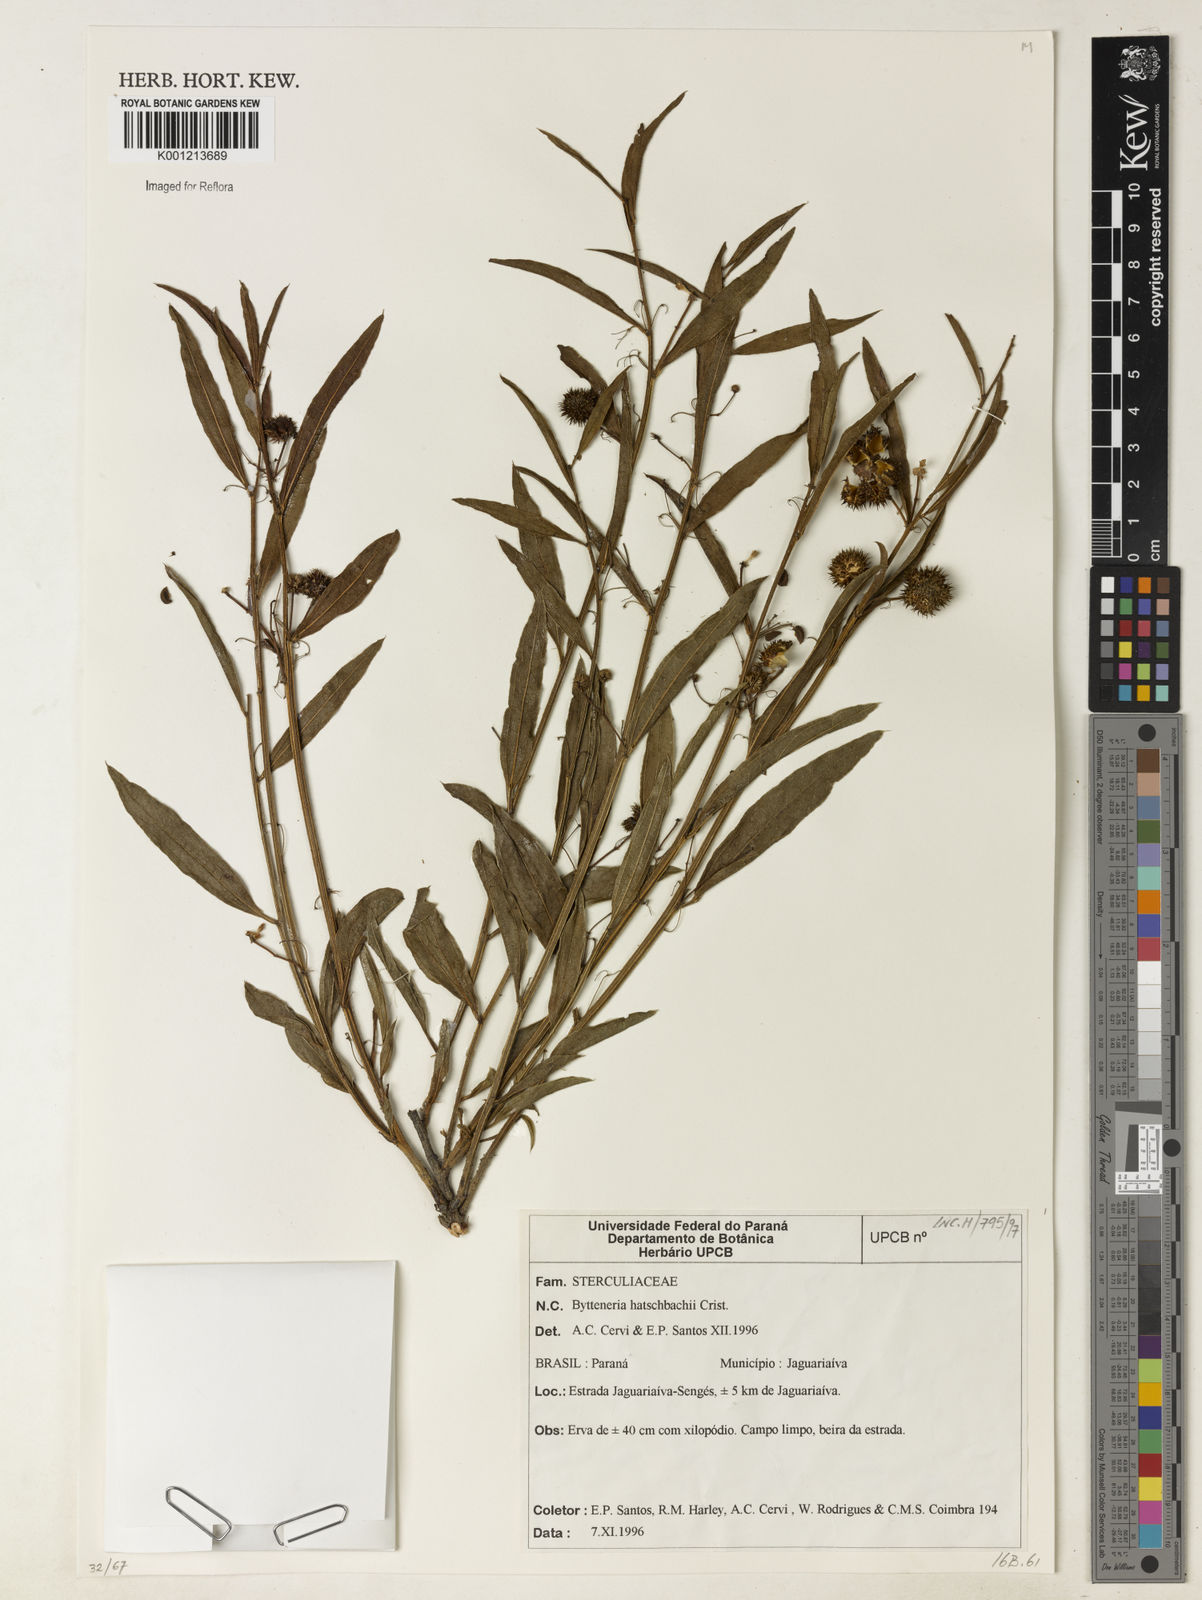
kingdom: Plantae
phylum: Tracheophyta
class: Magnoliopsida
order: Malvales
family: Malvaceae
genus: Byttneria
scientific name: Byttneria
